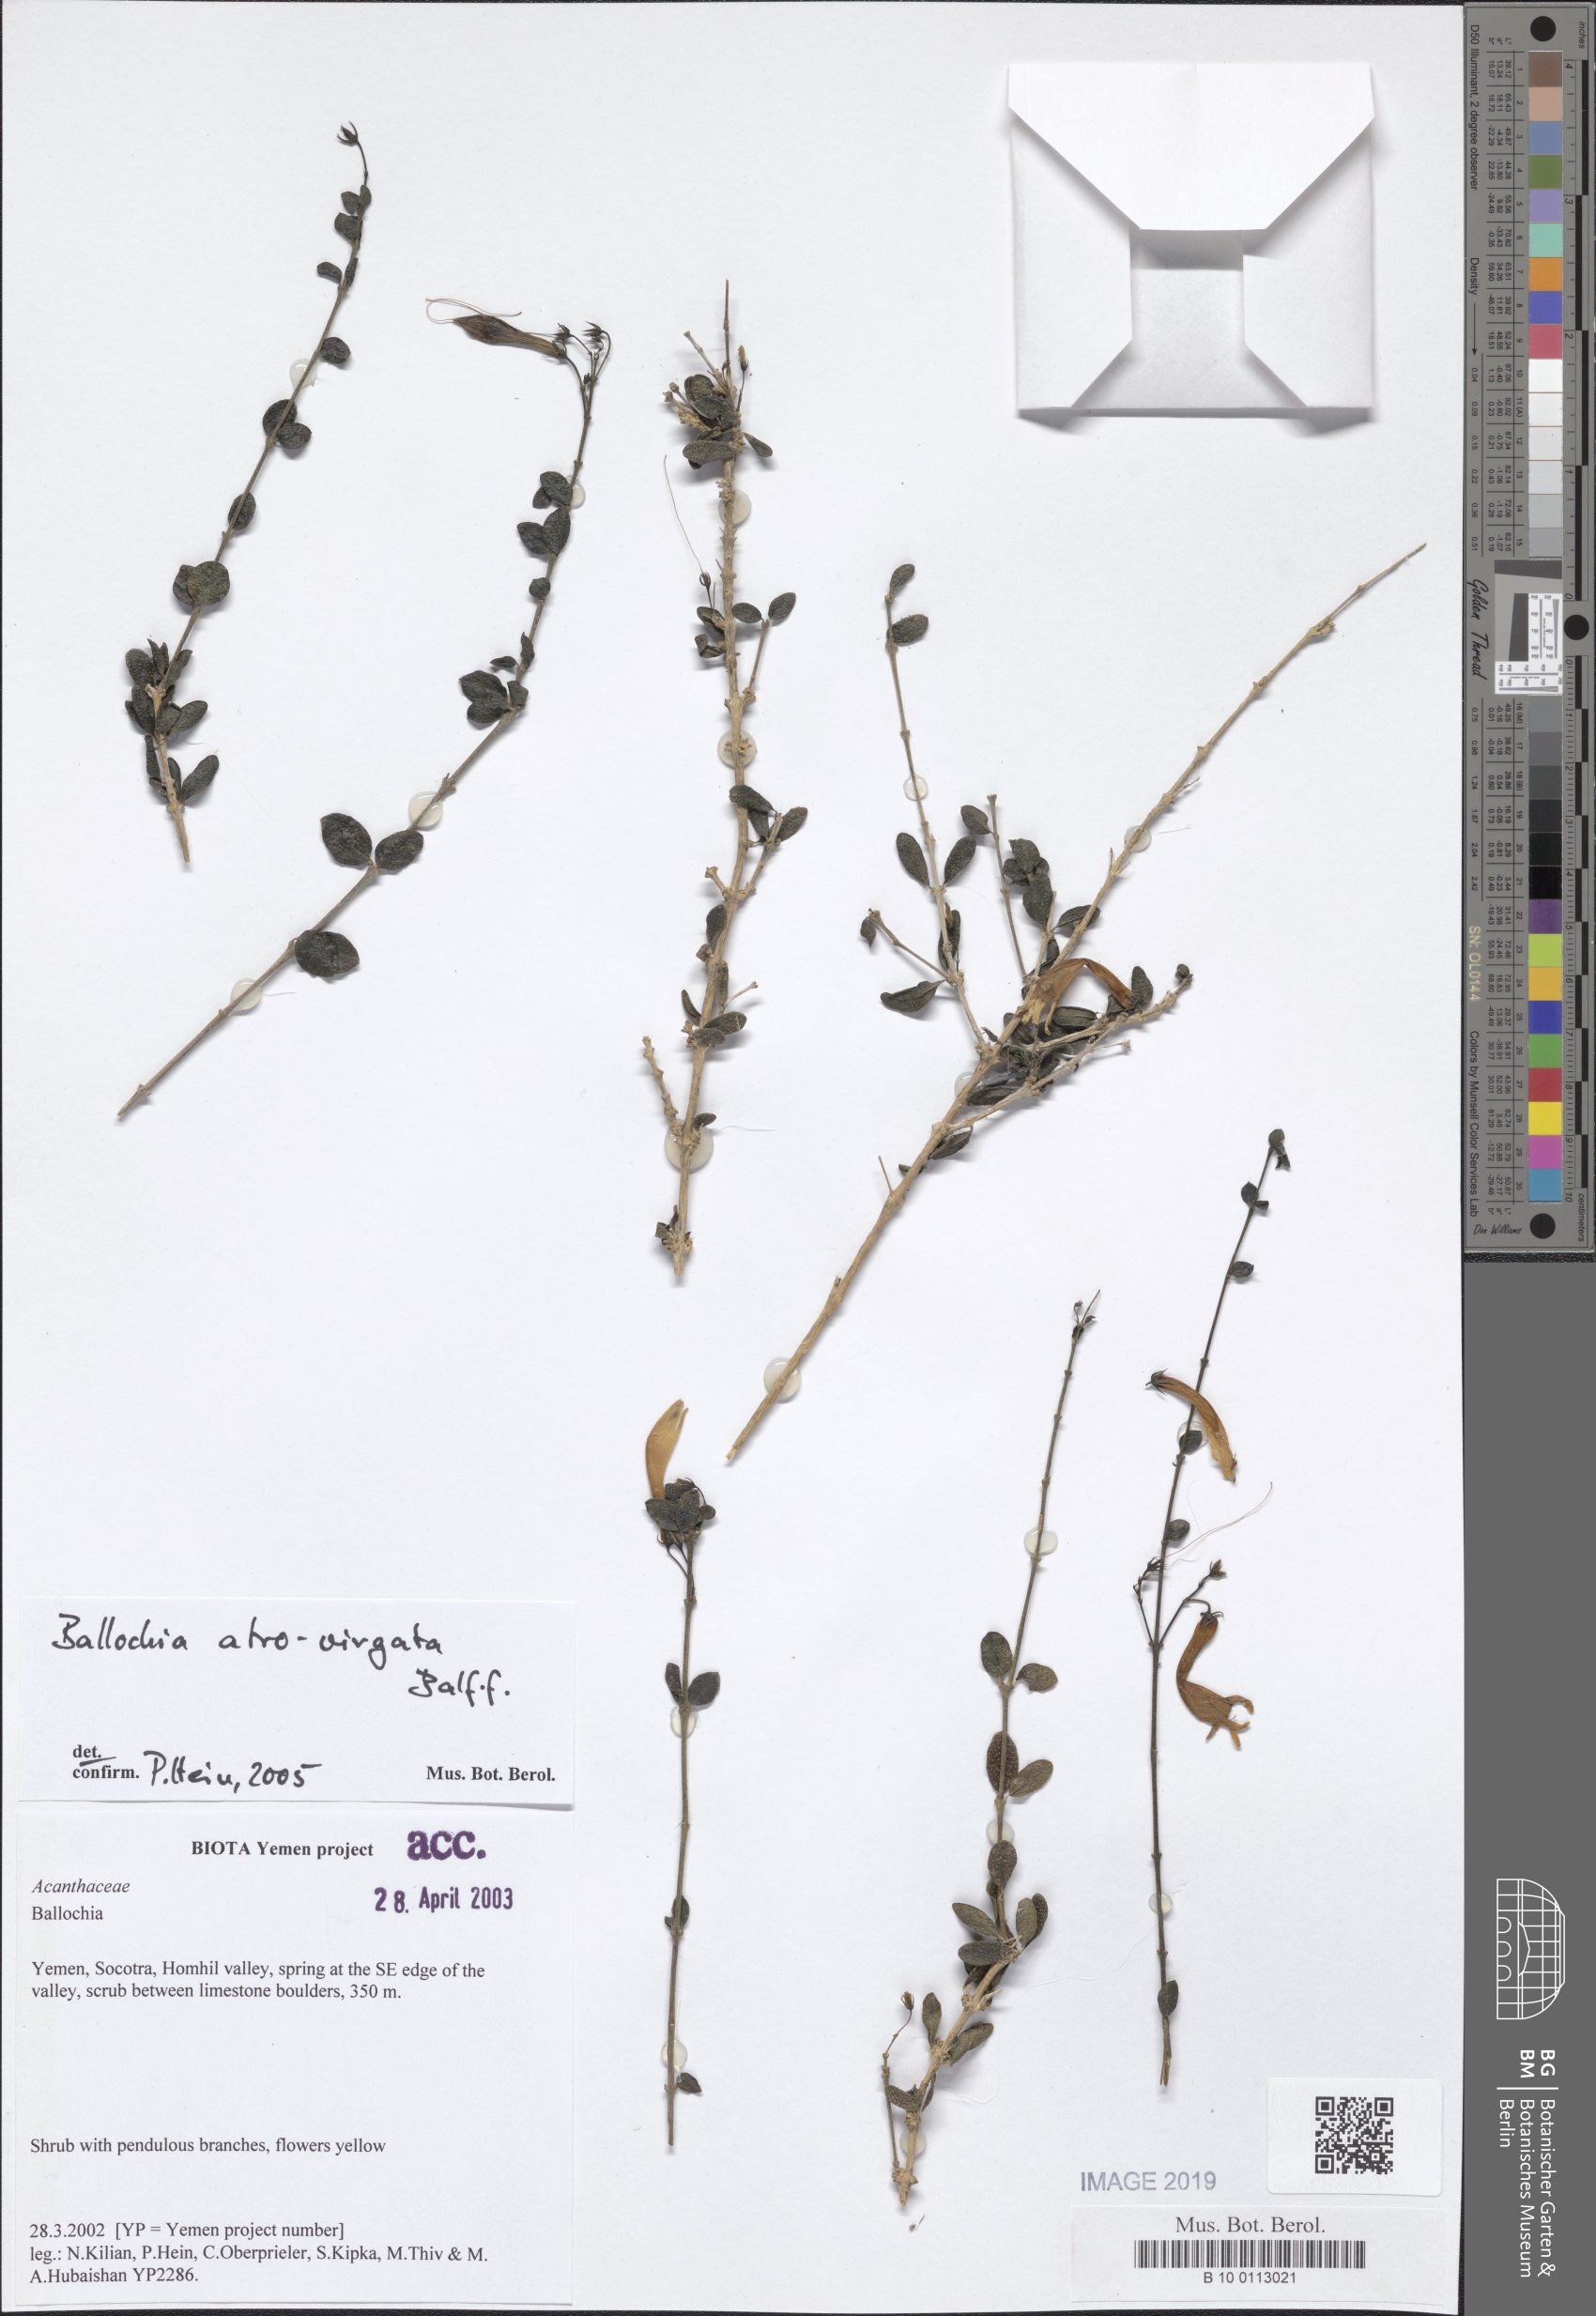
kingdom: Plantae
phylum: Tracheophyta
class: Magnoliopsida
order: Lamiales
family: Acanthaceae
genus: Ballochia
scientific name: Ballochia atrovirgata
